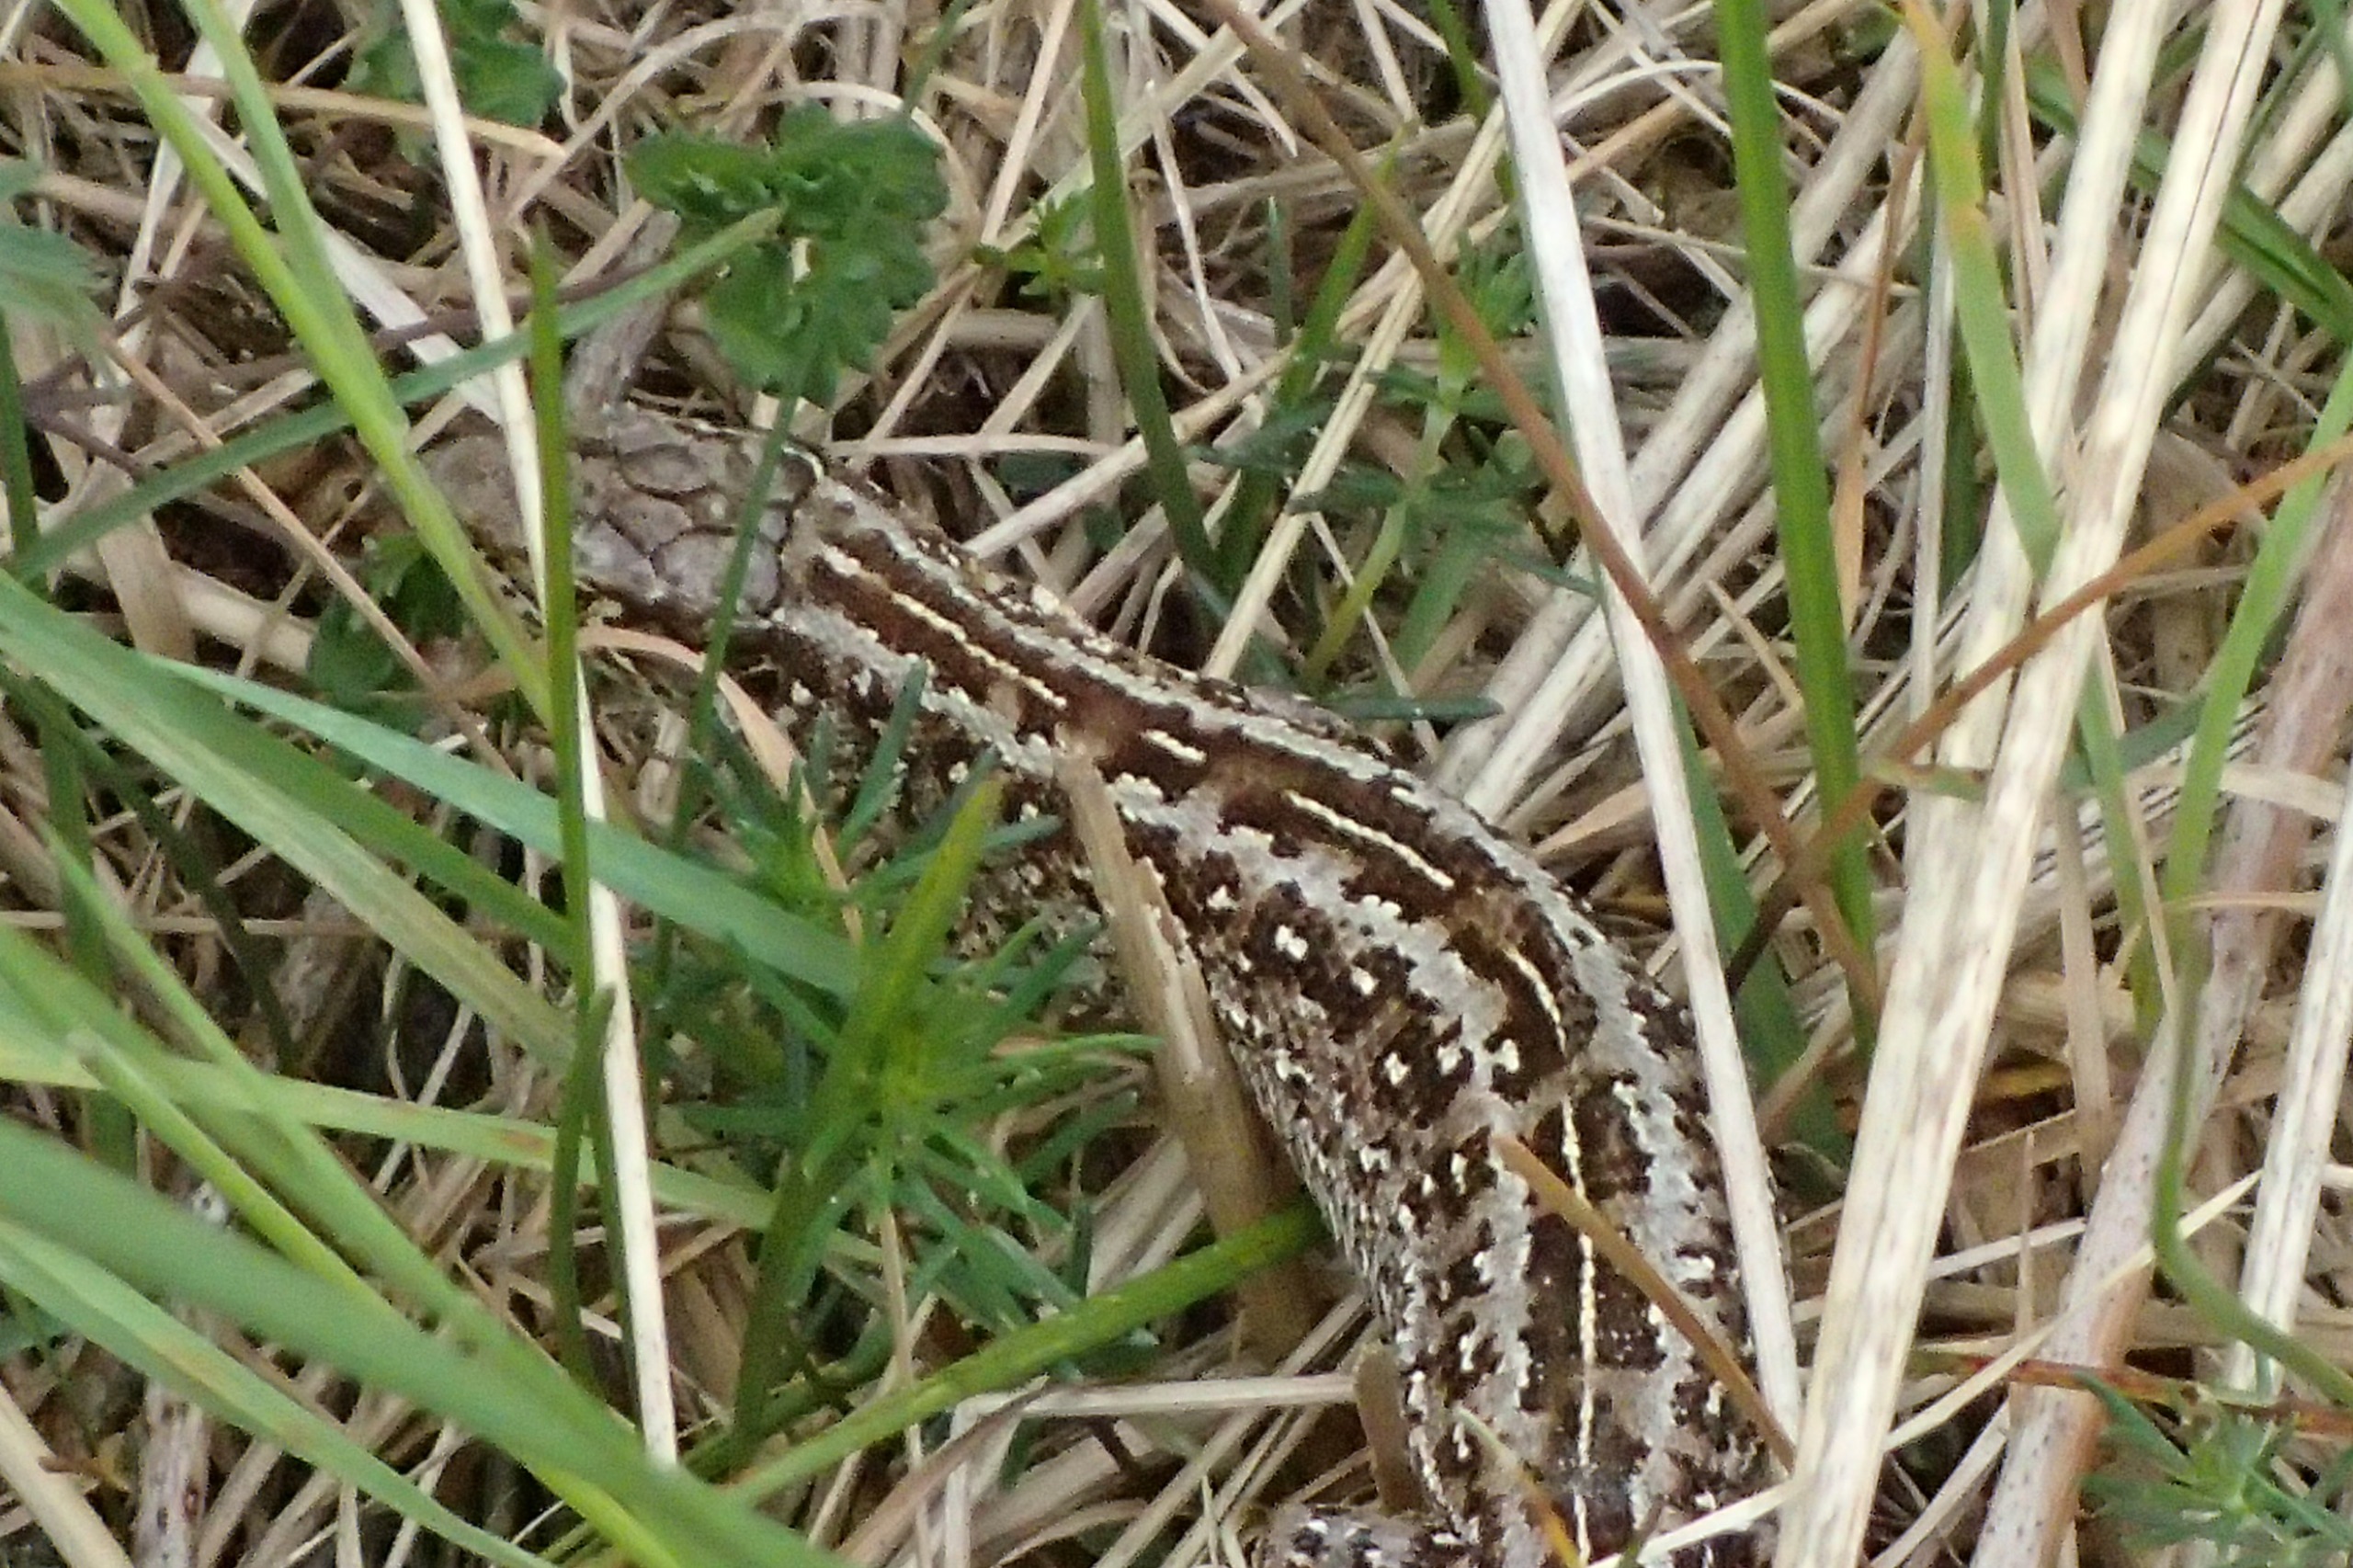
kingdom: Animalia
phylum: Chordata
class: Squamata
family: Lacertidae
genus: Lacerta
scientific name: Lacerta agilis
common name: Markfirben
